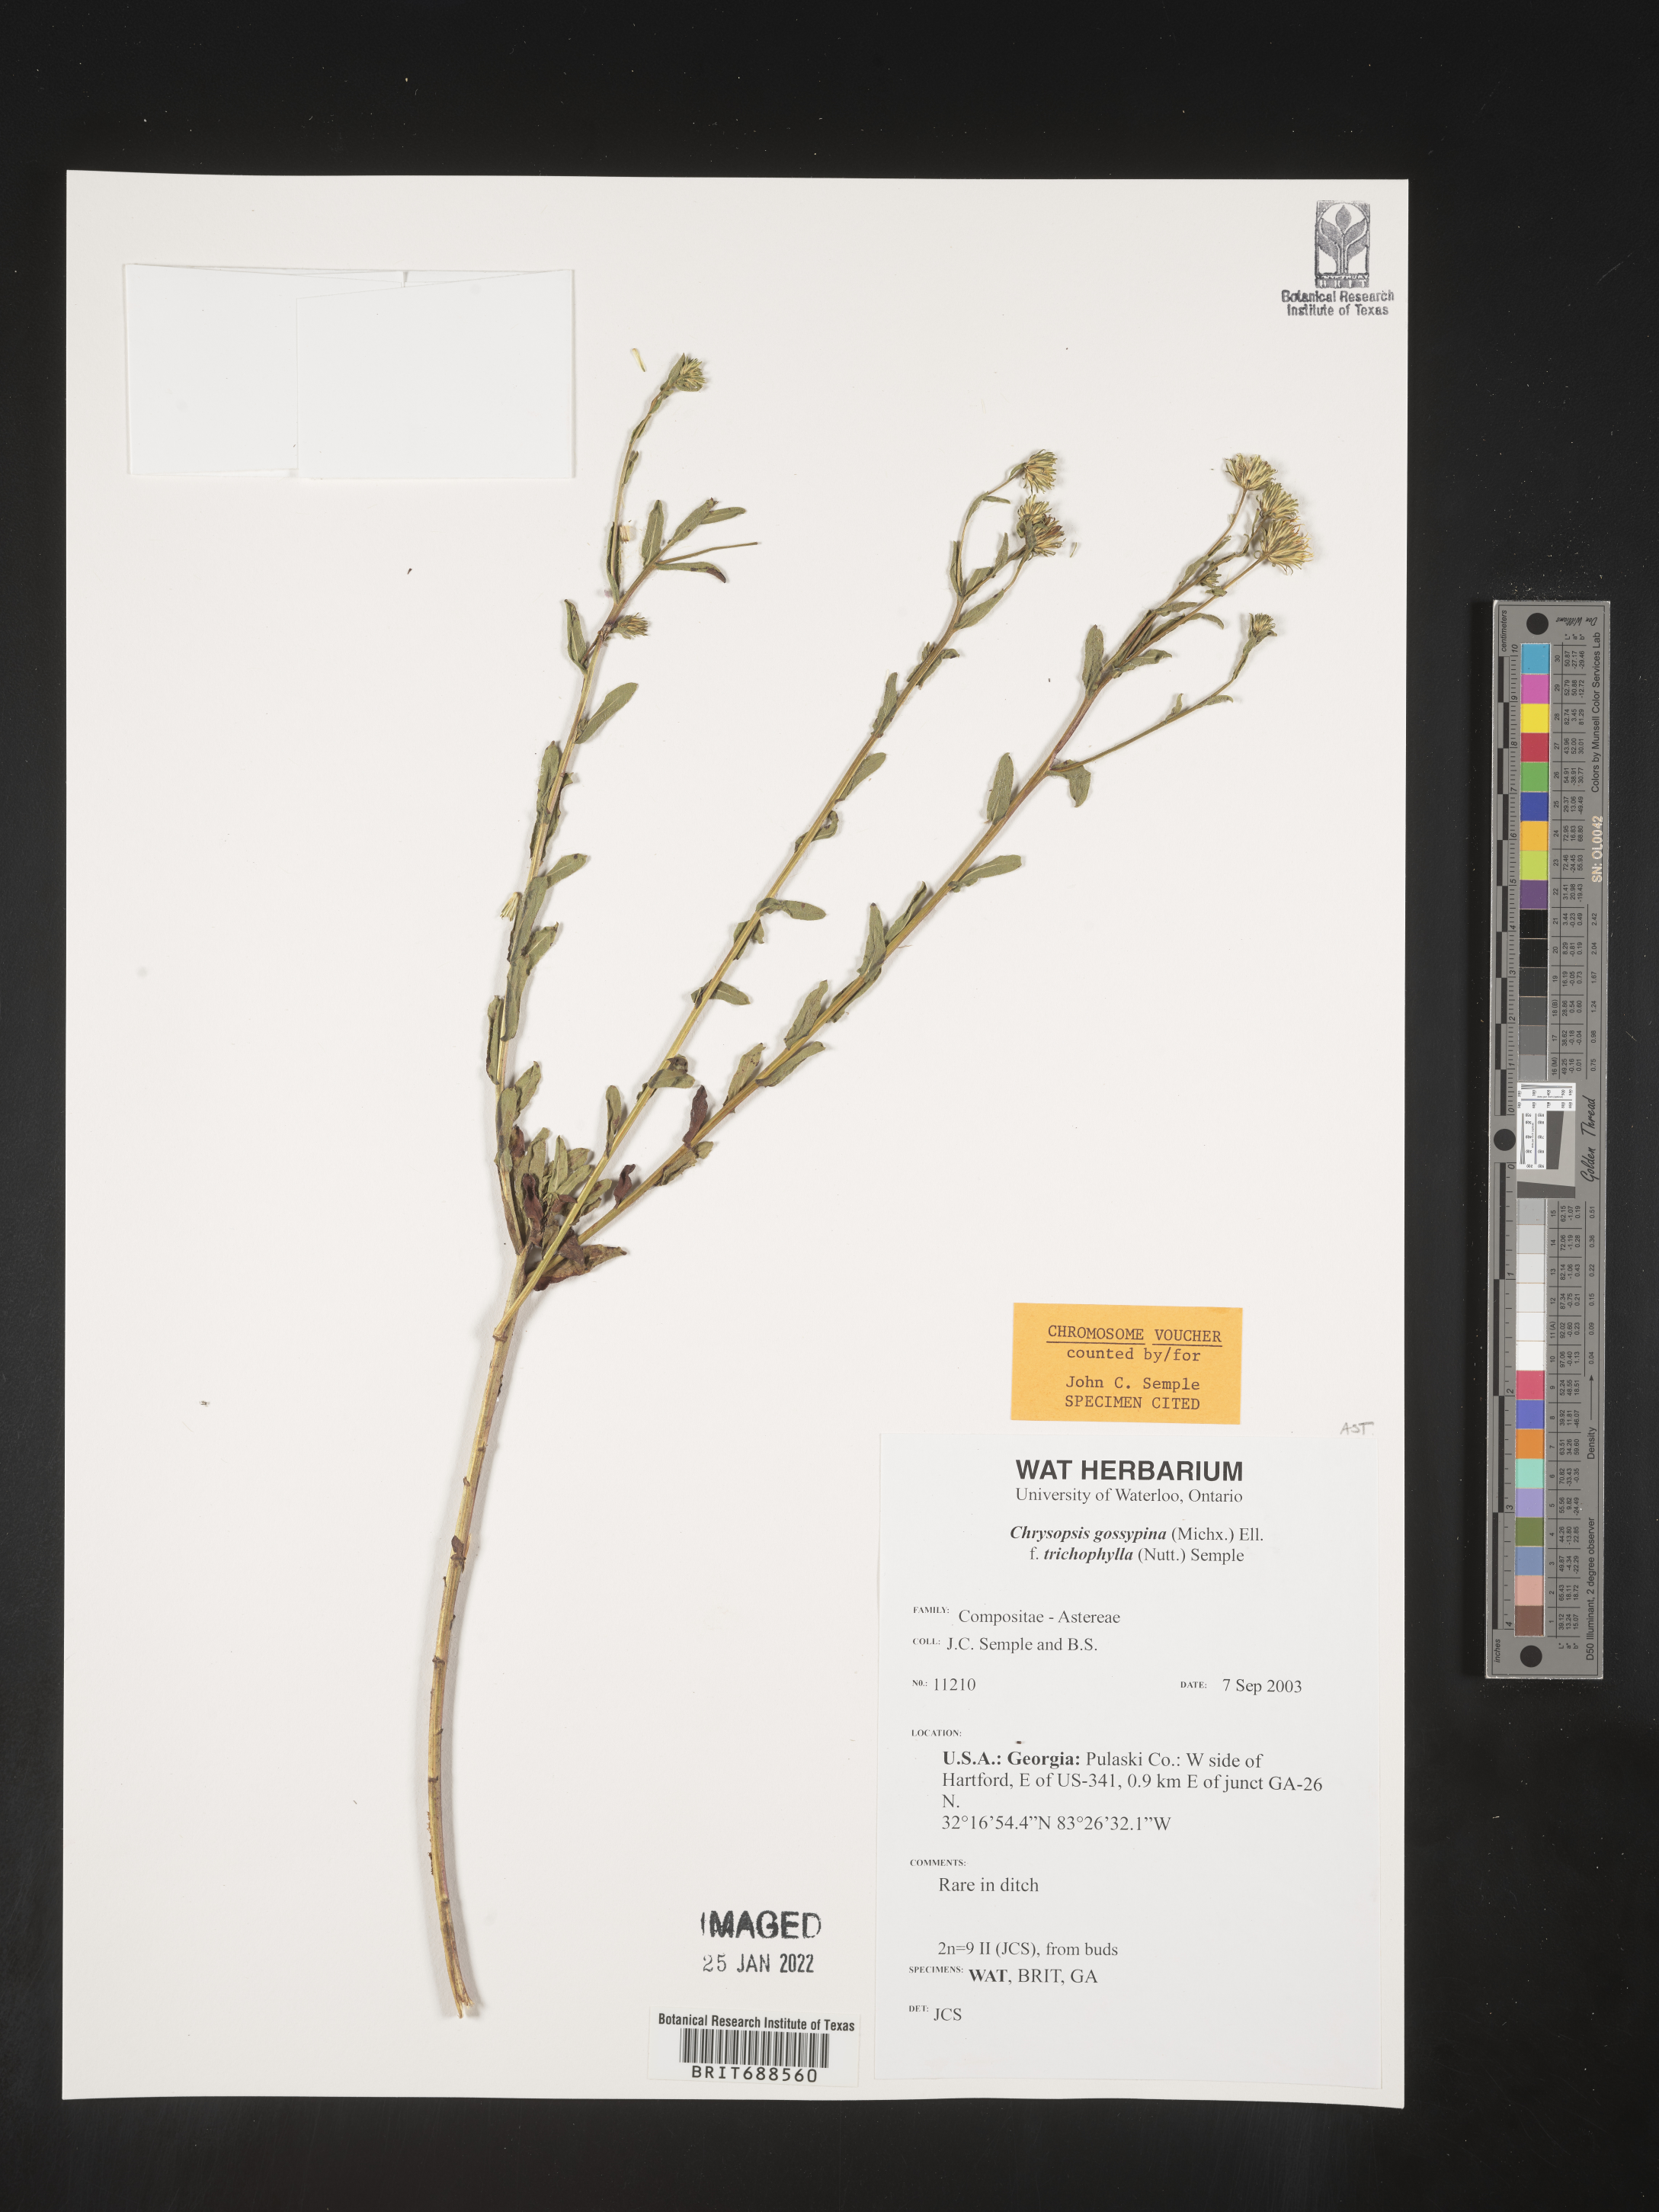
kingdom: Plantae
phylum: Tracheophyta
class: Magnoliopsida
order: Asterales
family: Asteraceae
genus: Chrysopsis
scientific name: Chrysopsis gossypina
